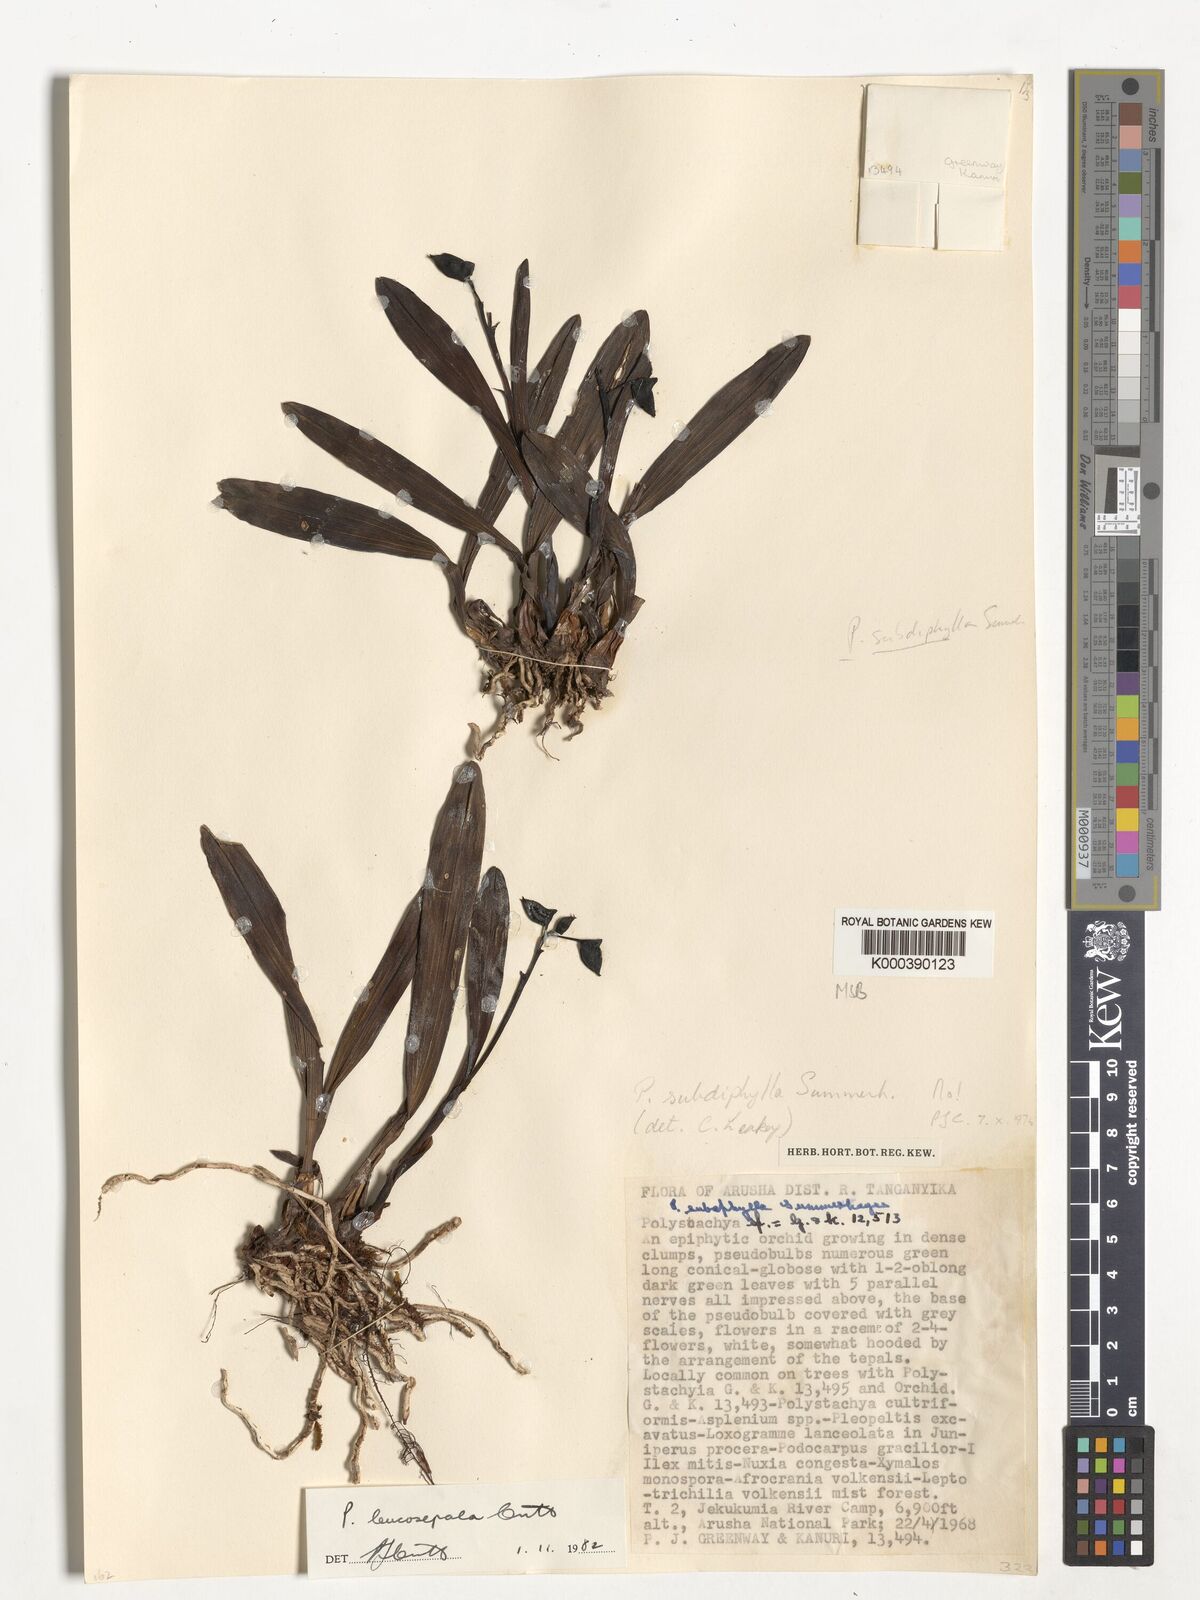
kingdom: Plantae
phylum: Tracheophyta
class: Liliopsida
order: Asparagales
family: Orchidaceae
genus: Polystachya
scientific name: Polystachya leucosepala
